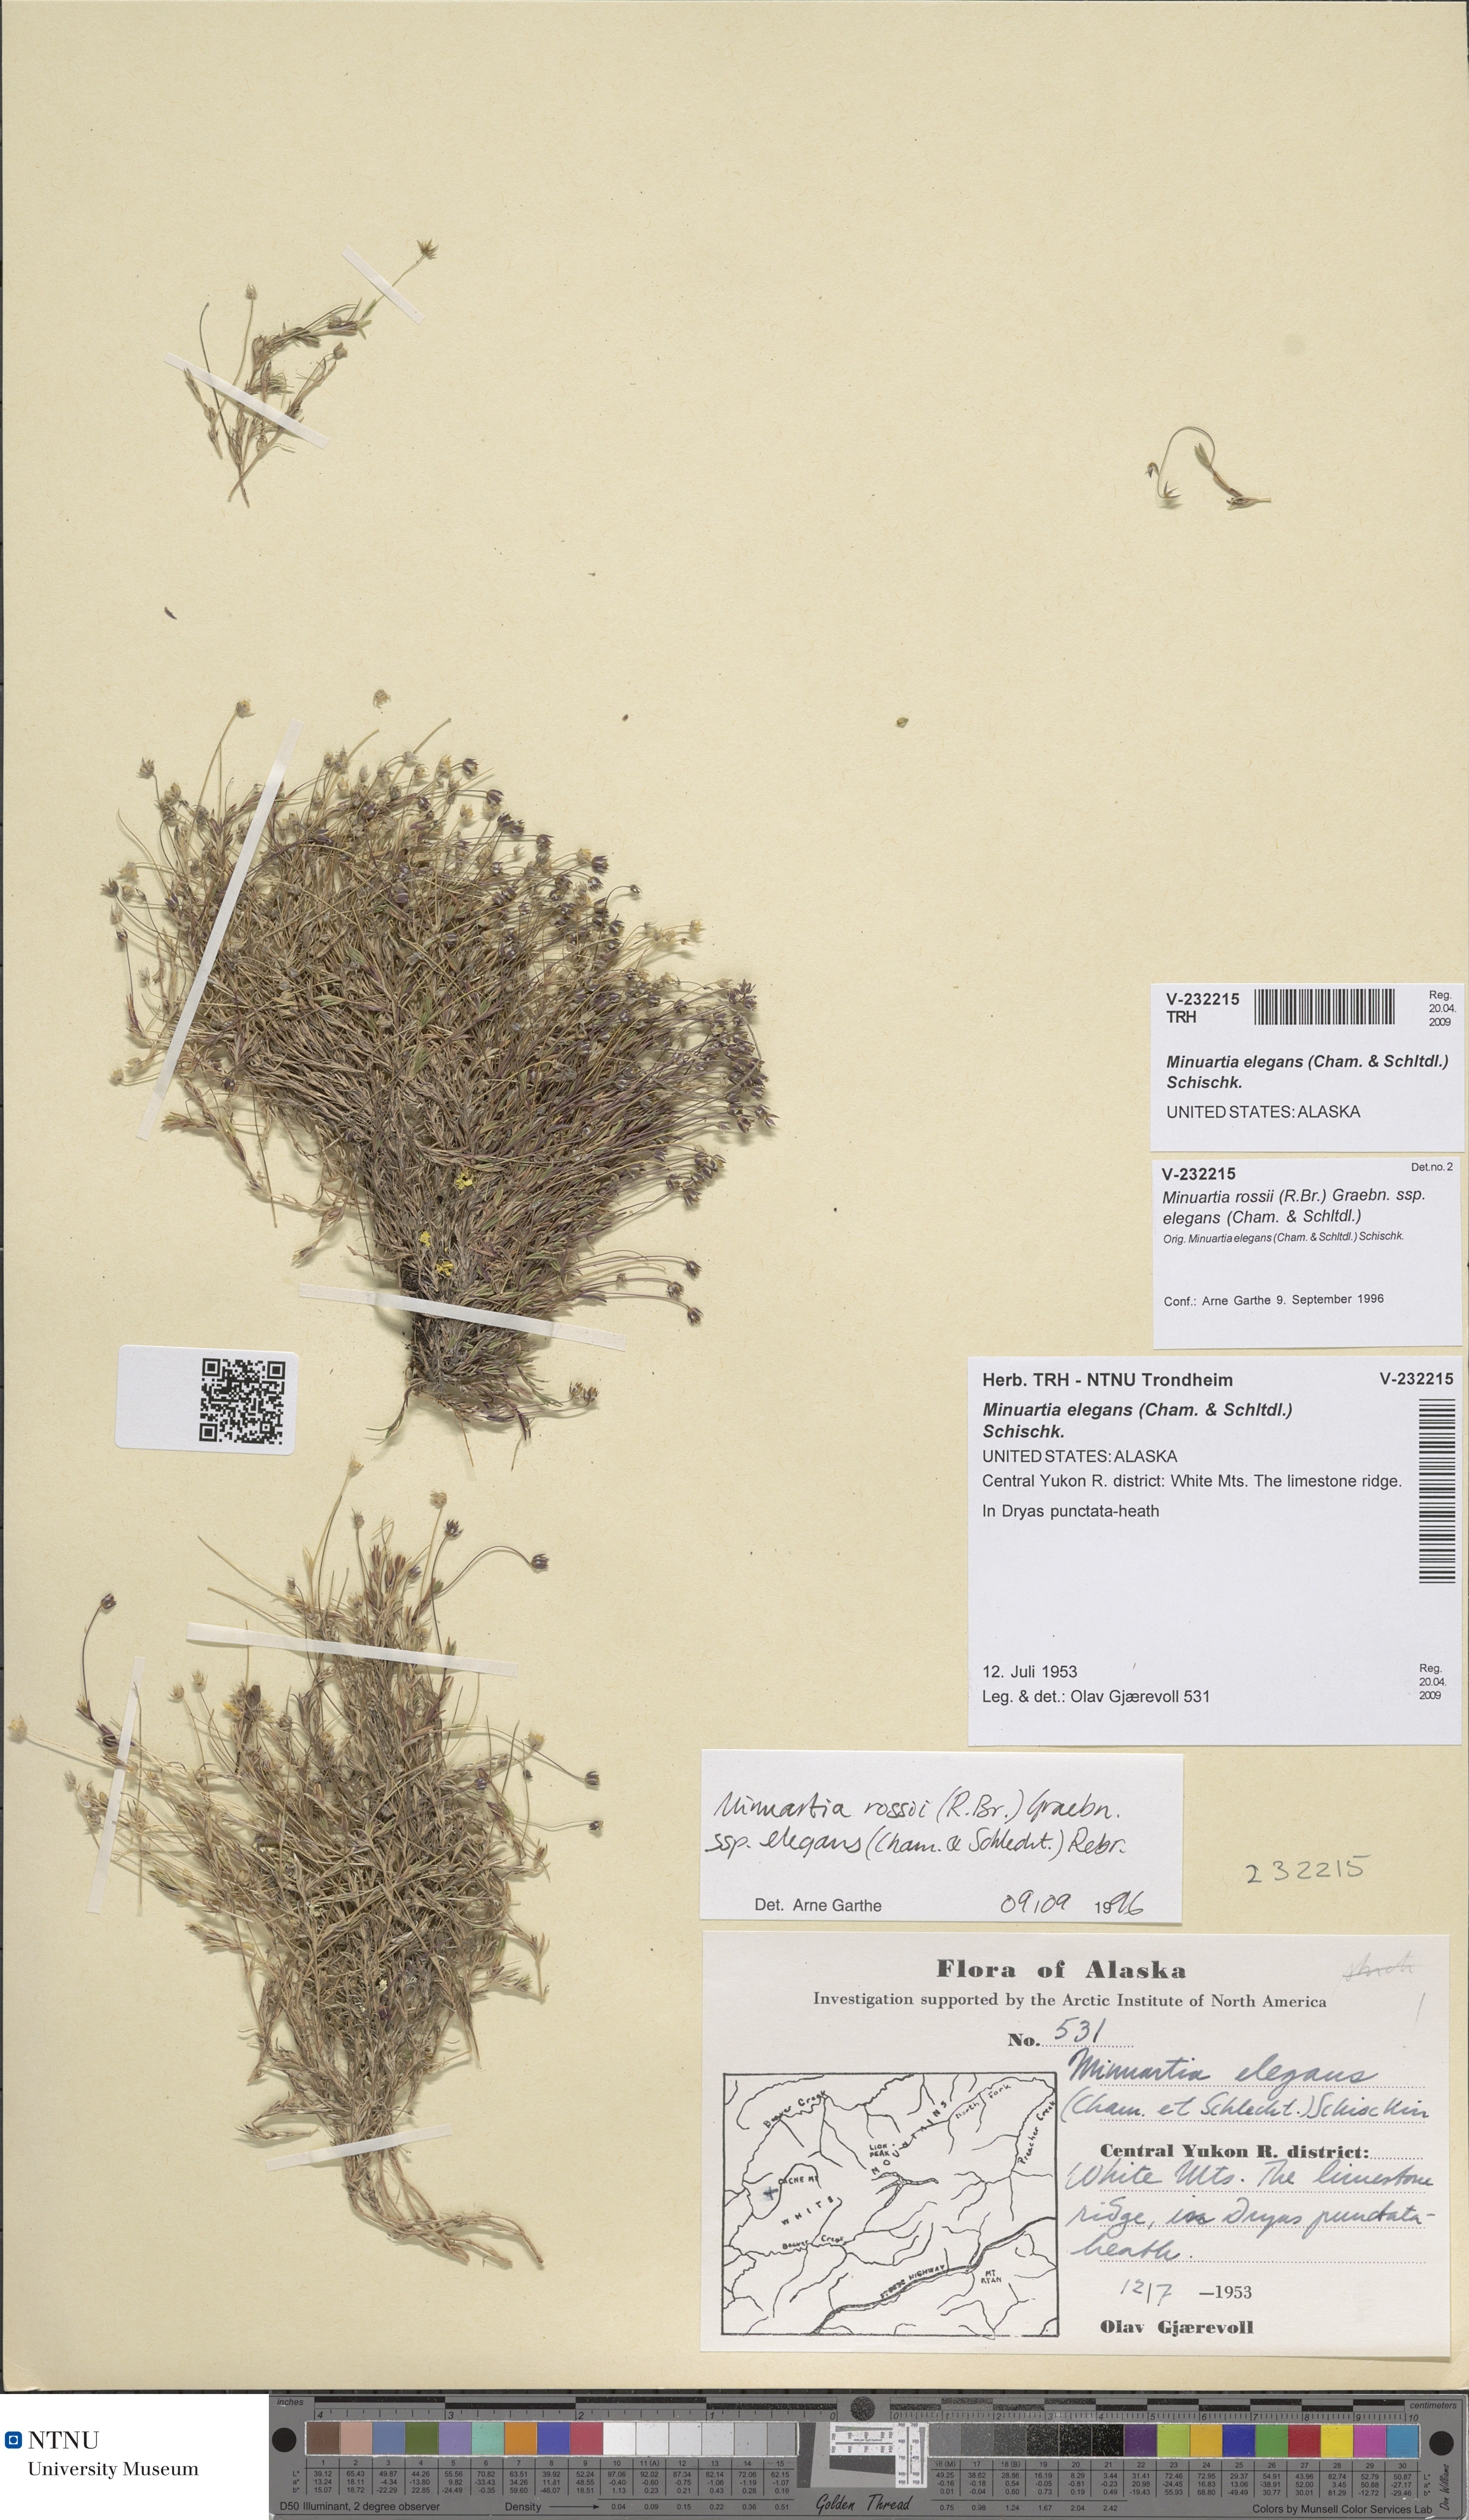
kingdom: Plantae
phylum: Tracheophyta
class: Magnoliopsida
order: Caryophyllales
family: Caryophyllaceae
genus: Sabulina
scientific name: Sabulina elegans
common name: Elegant stitchwort
